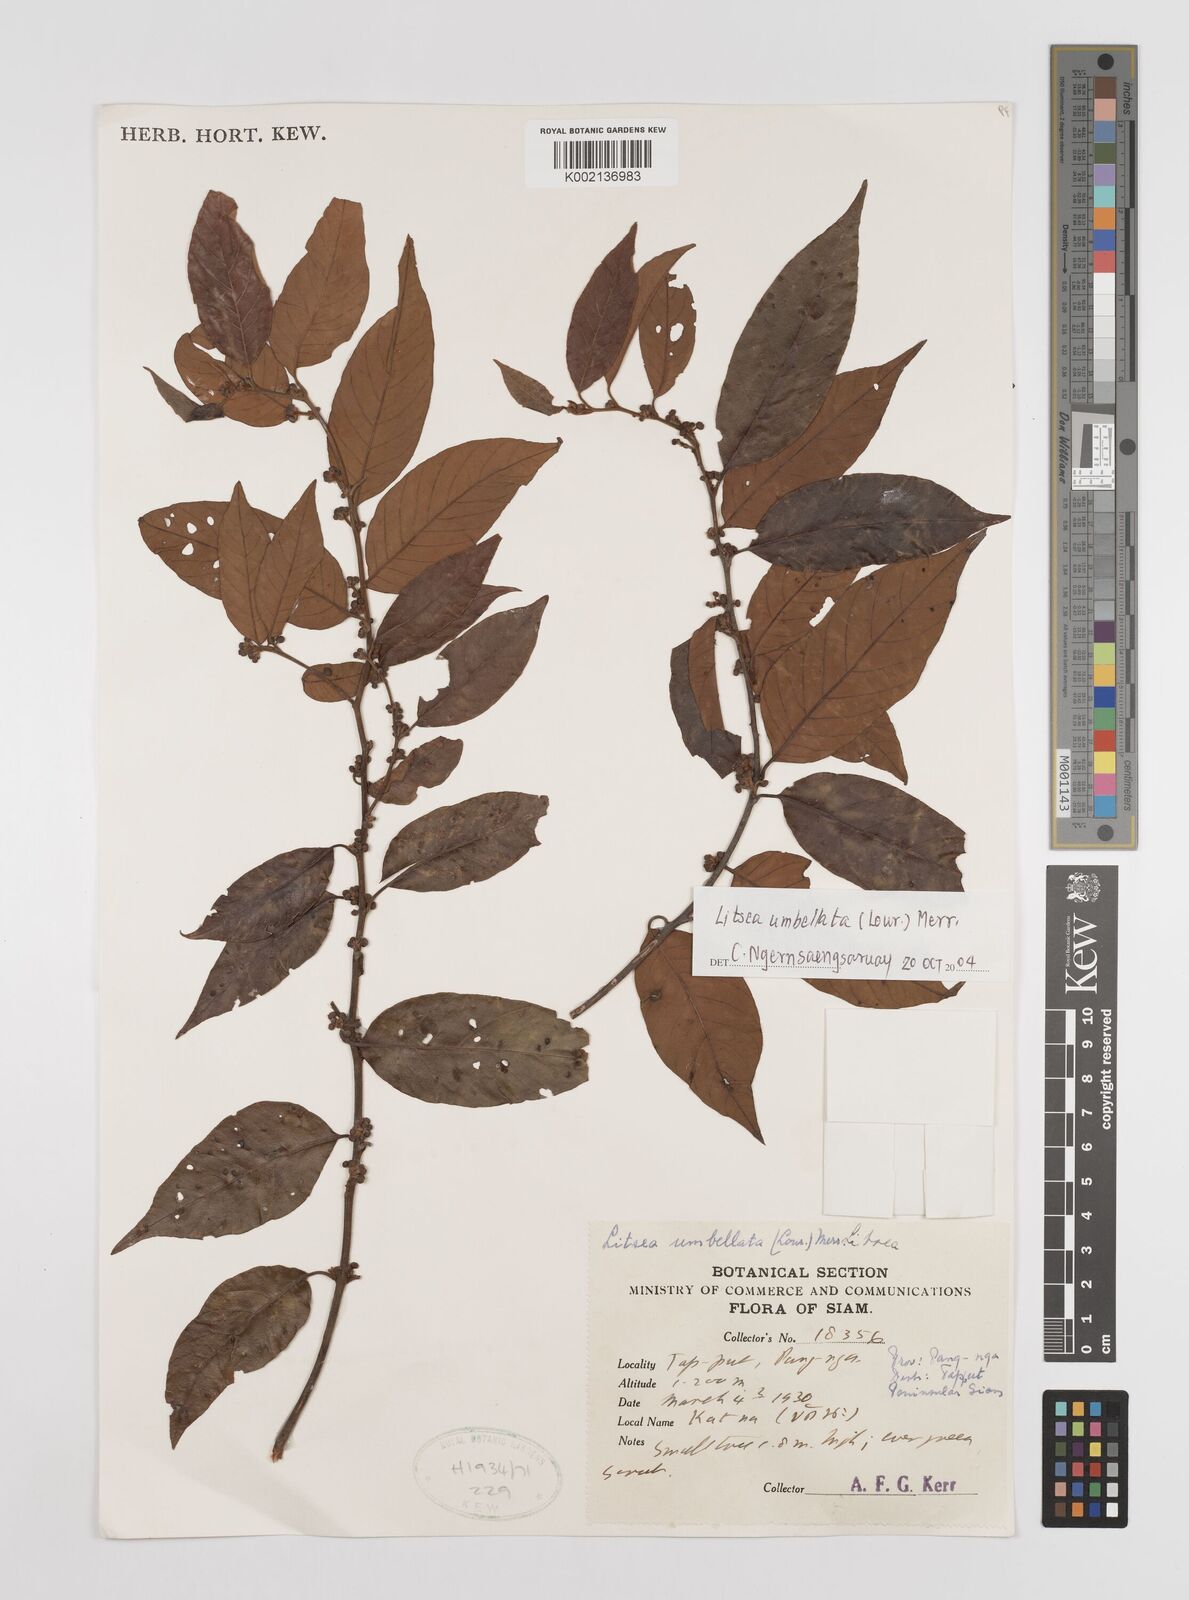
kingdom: Plantae
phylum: Tracheophyta
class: Magnoliopsida
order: Laurales
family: Lauraceae
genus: Litsea
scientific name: Litsea umbellata
